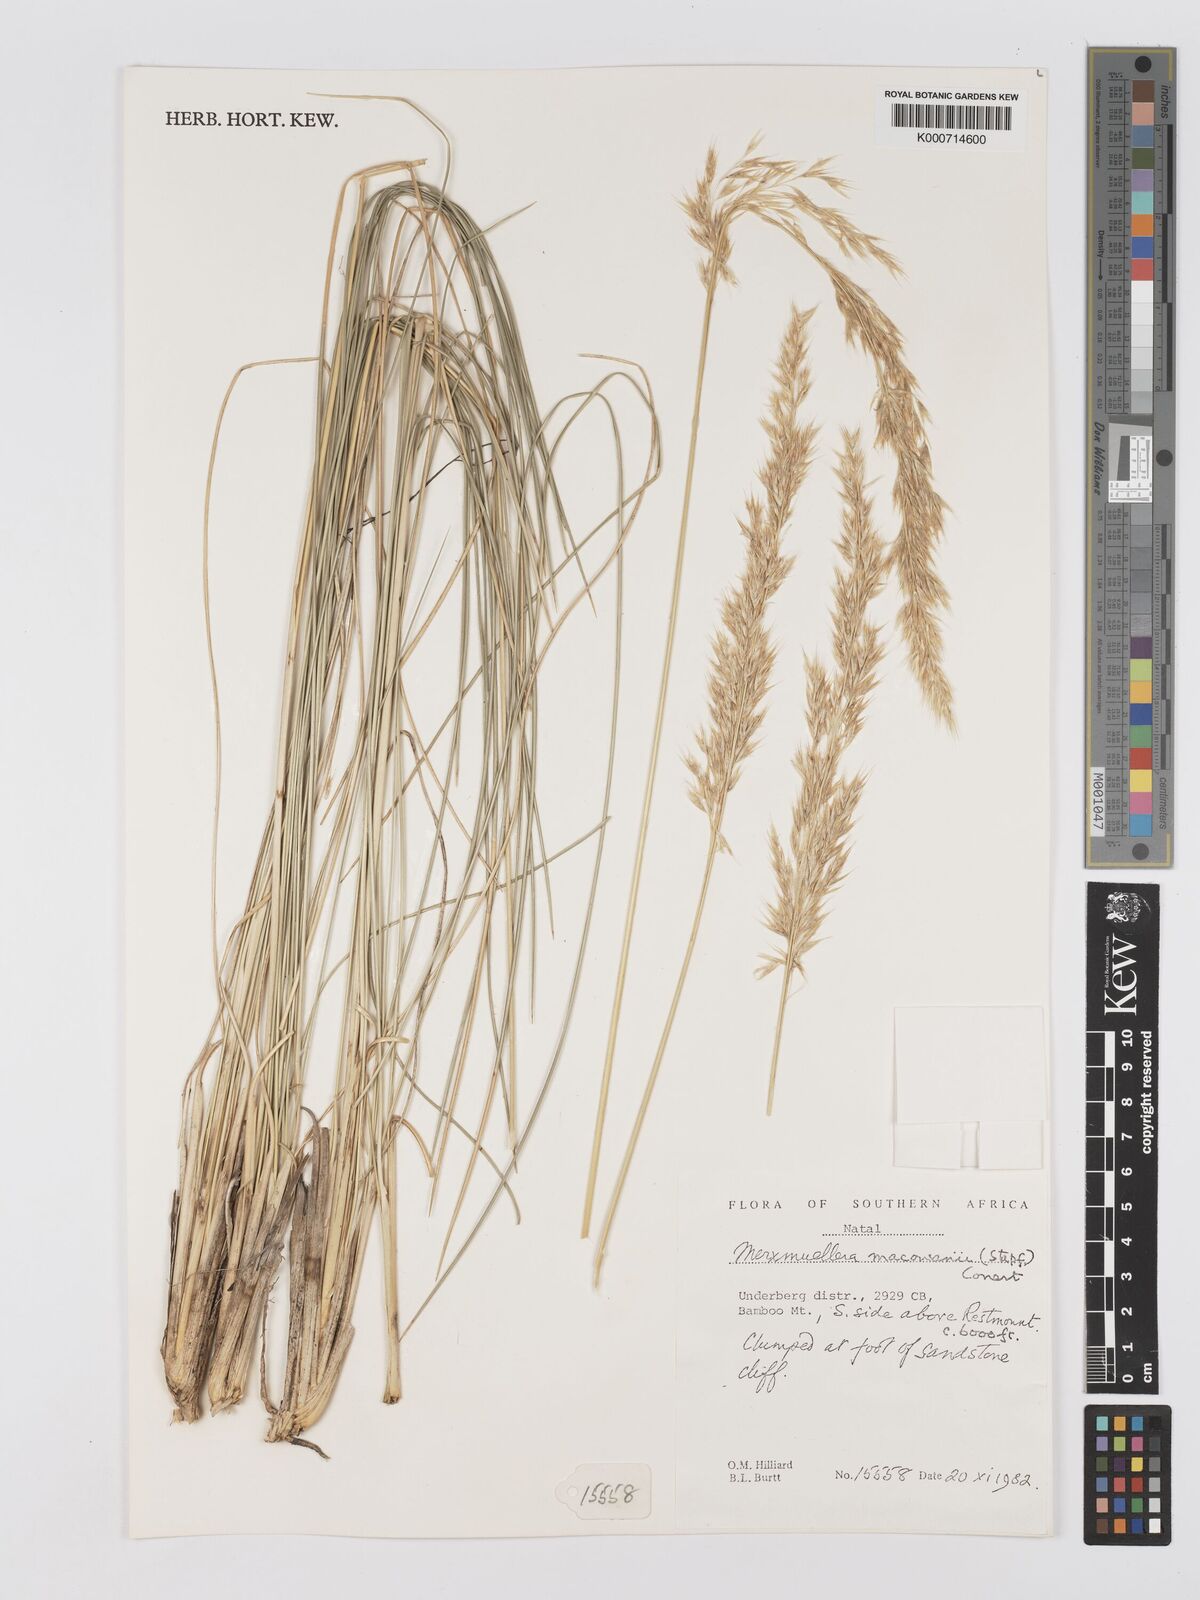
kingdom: Plantae
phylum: Tracheophyta
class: Liliopsida
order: Poales
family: Poaceae
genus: Rytidosperma
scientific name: Rytidosperma
